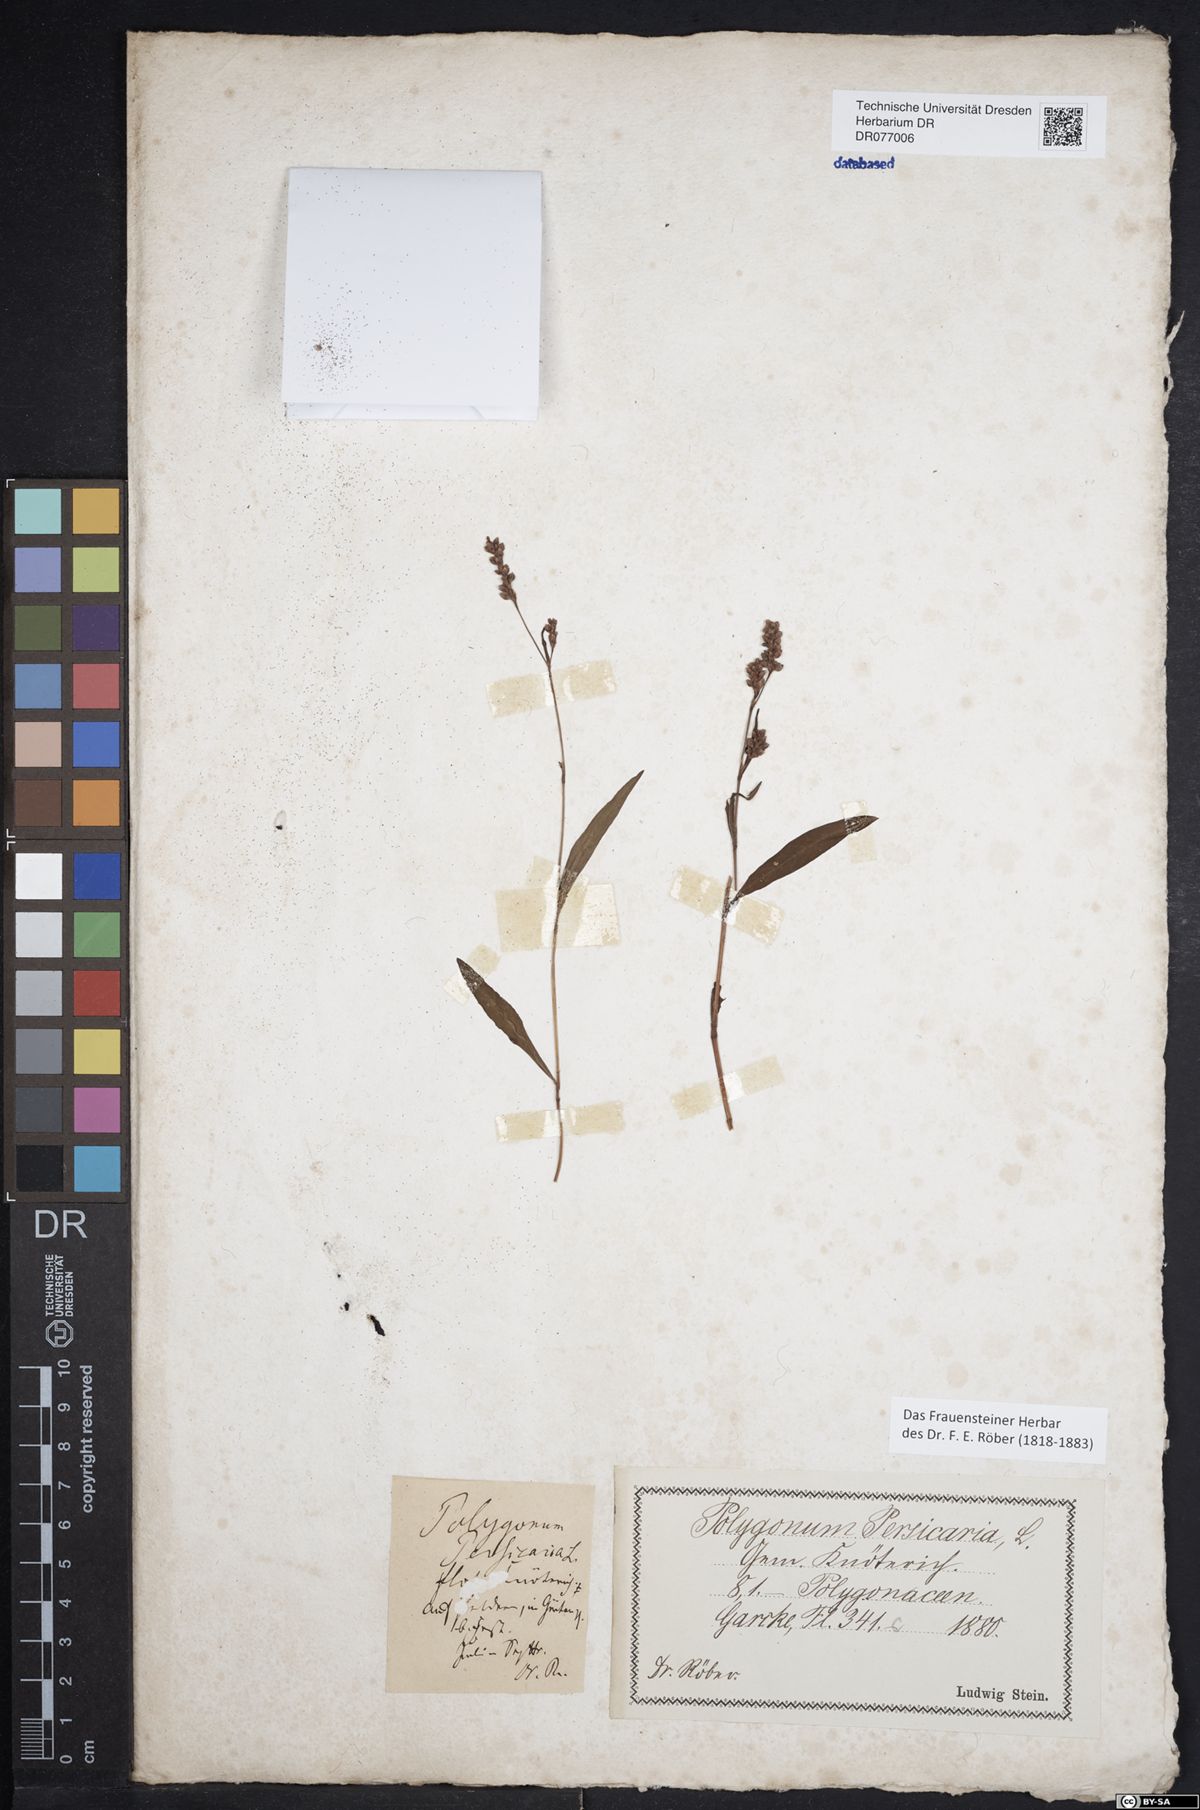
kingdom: Plantae
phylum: Tracheophyta
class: Magnoliopsida
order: Caryophyllales
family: Polygonaceae
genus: Persicaria
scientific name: Persicaria maculosa
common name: Redshank
